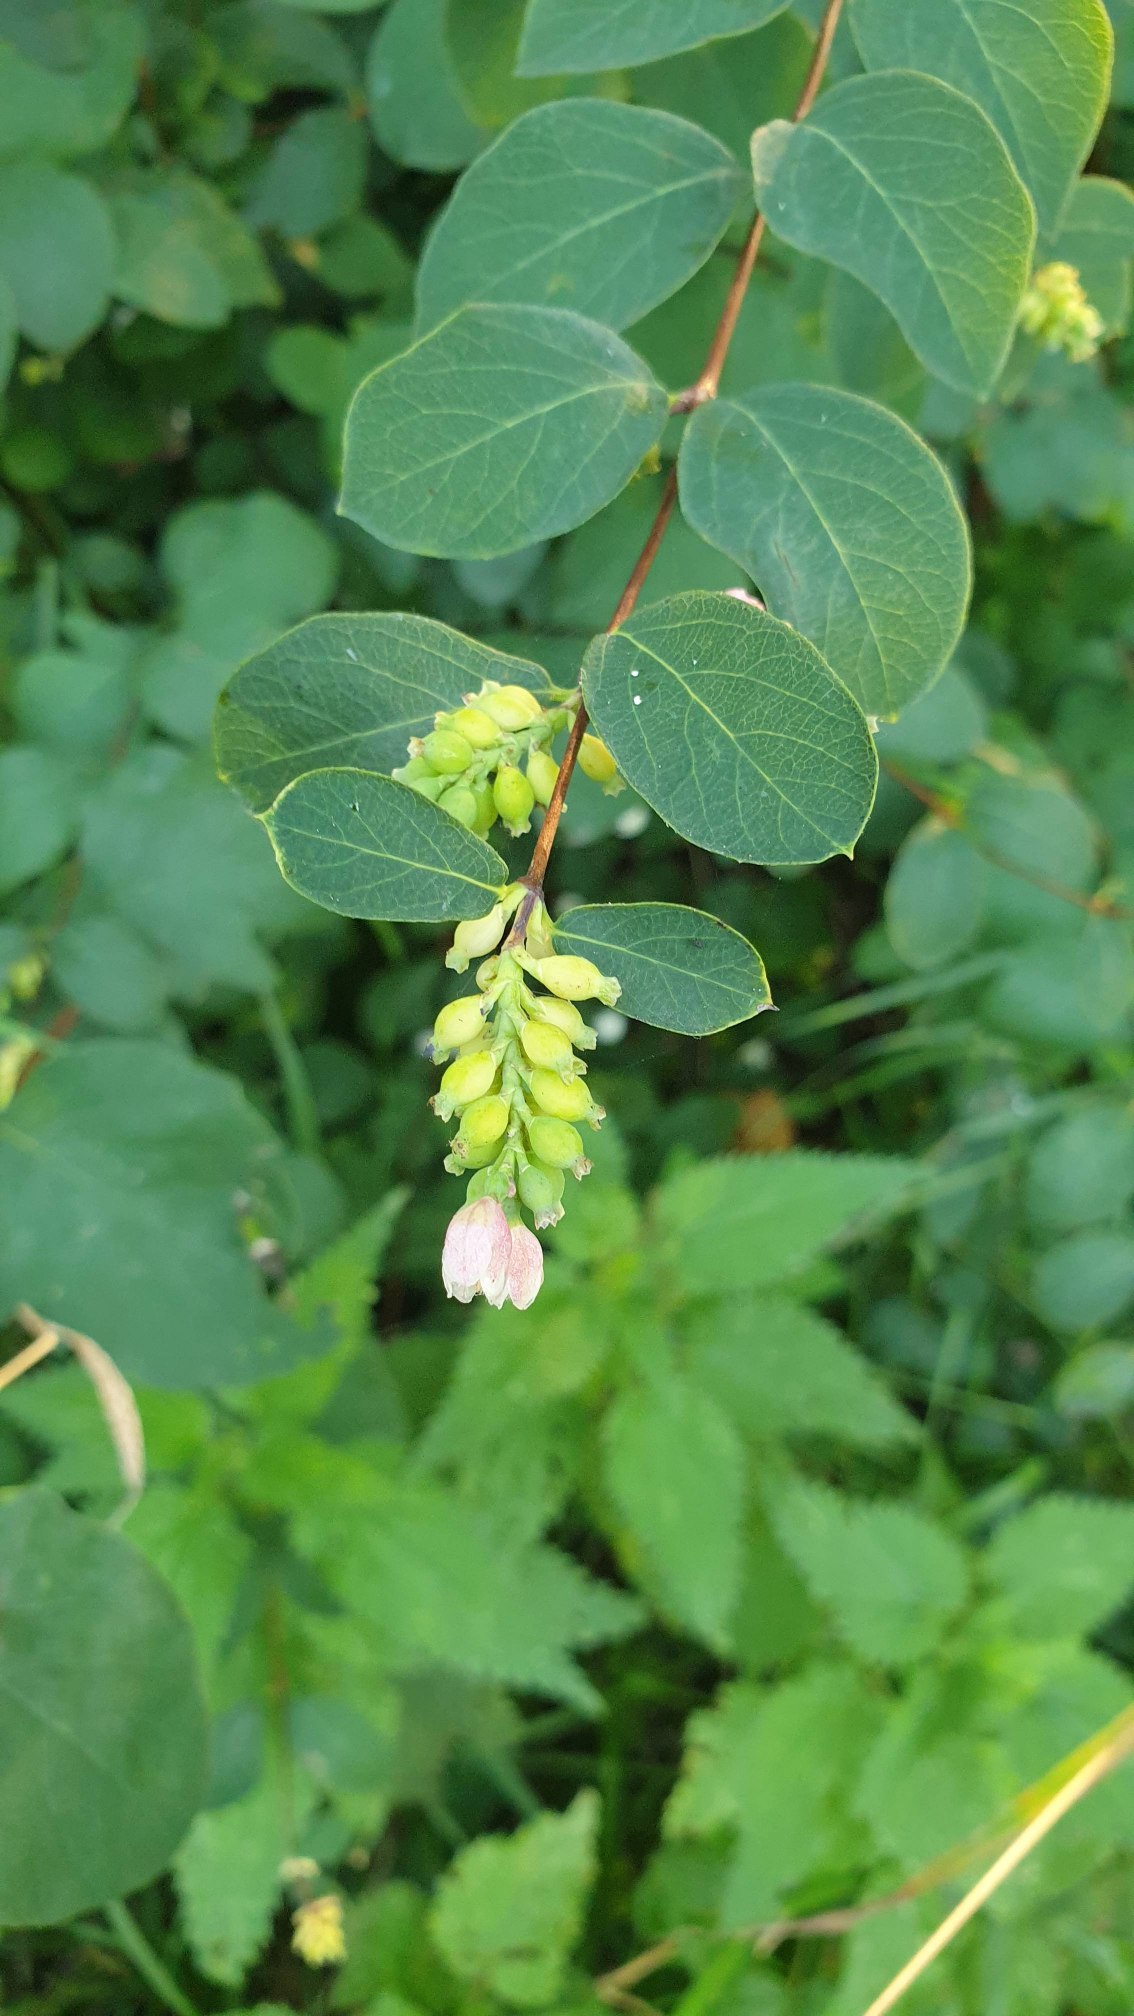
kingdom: Plantae
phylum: Tracheophyta
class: Magnoliopsida
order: Dipsacales
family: Caprifoliaceae
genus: Symphoricarpos
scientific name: Symphoricarpos albus
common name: Almindelig snebær
